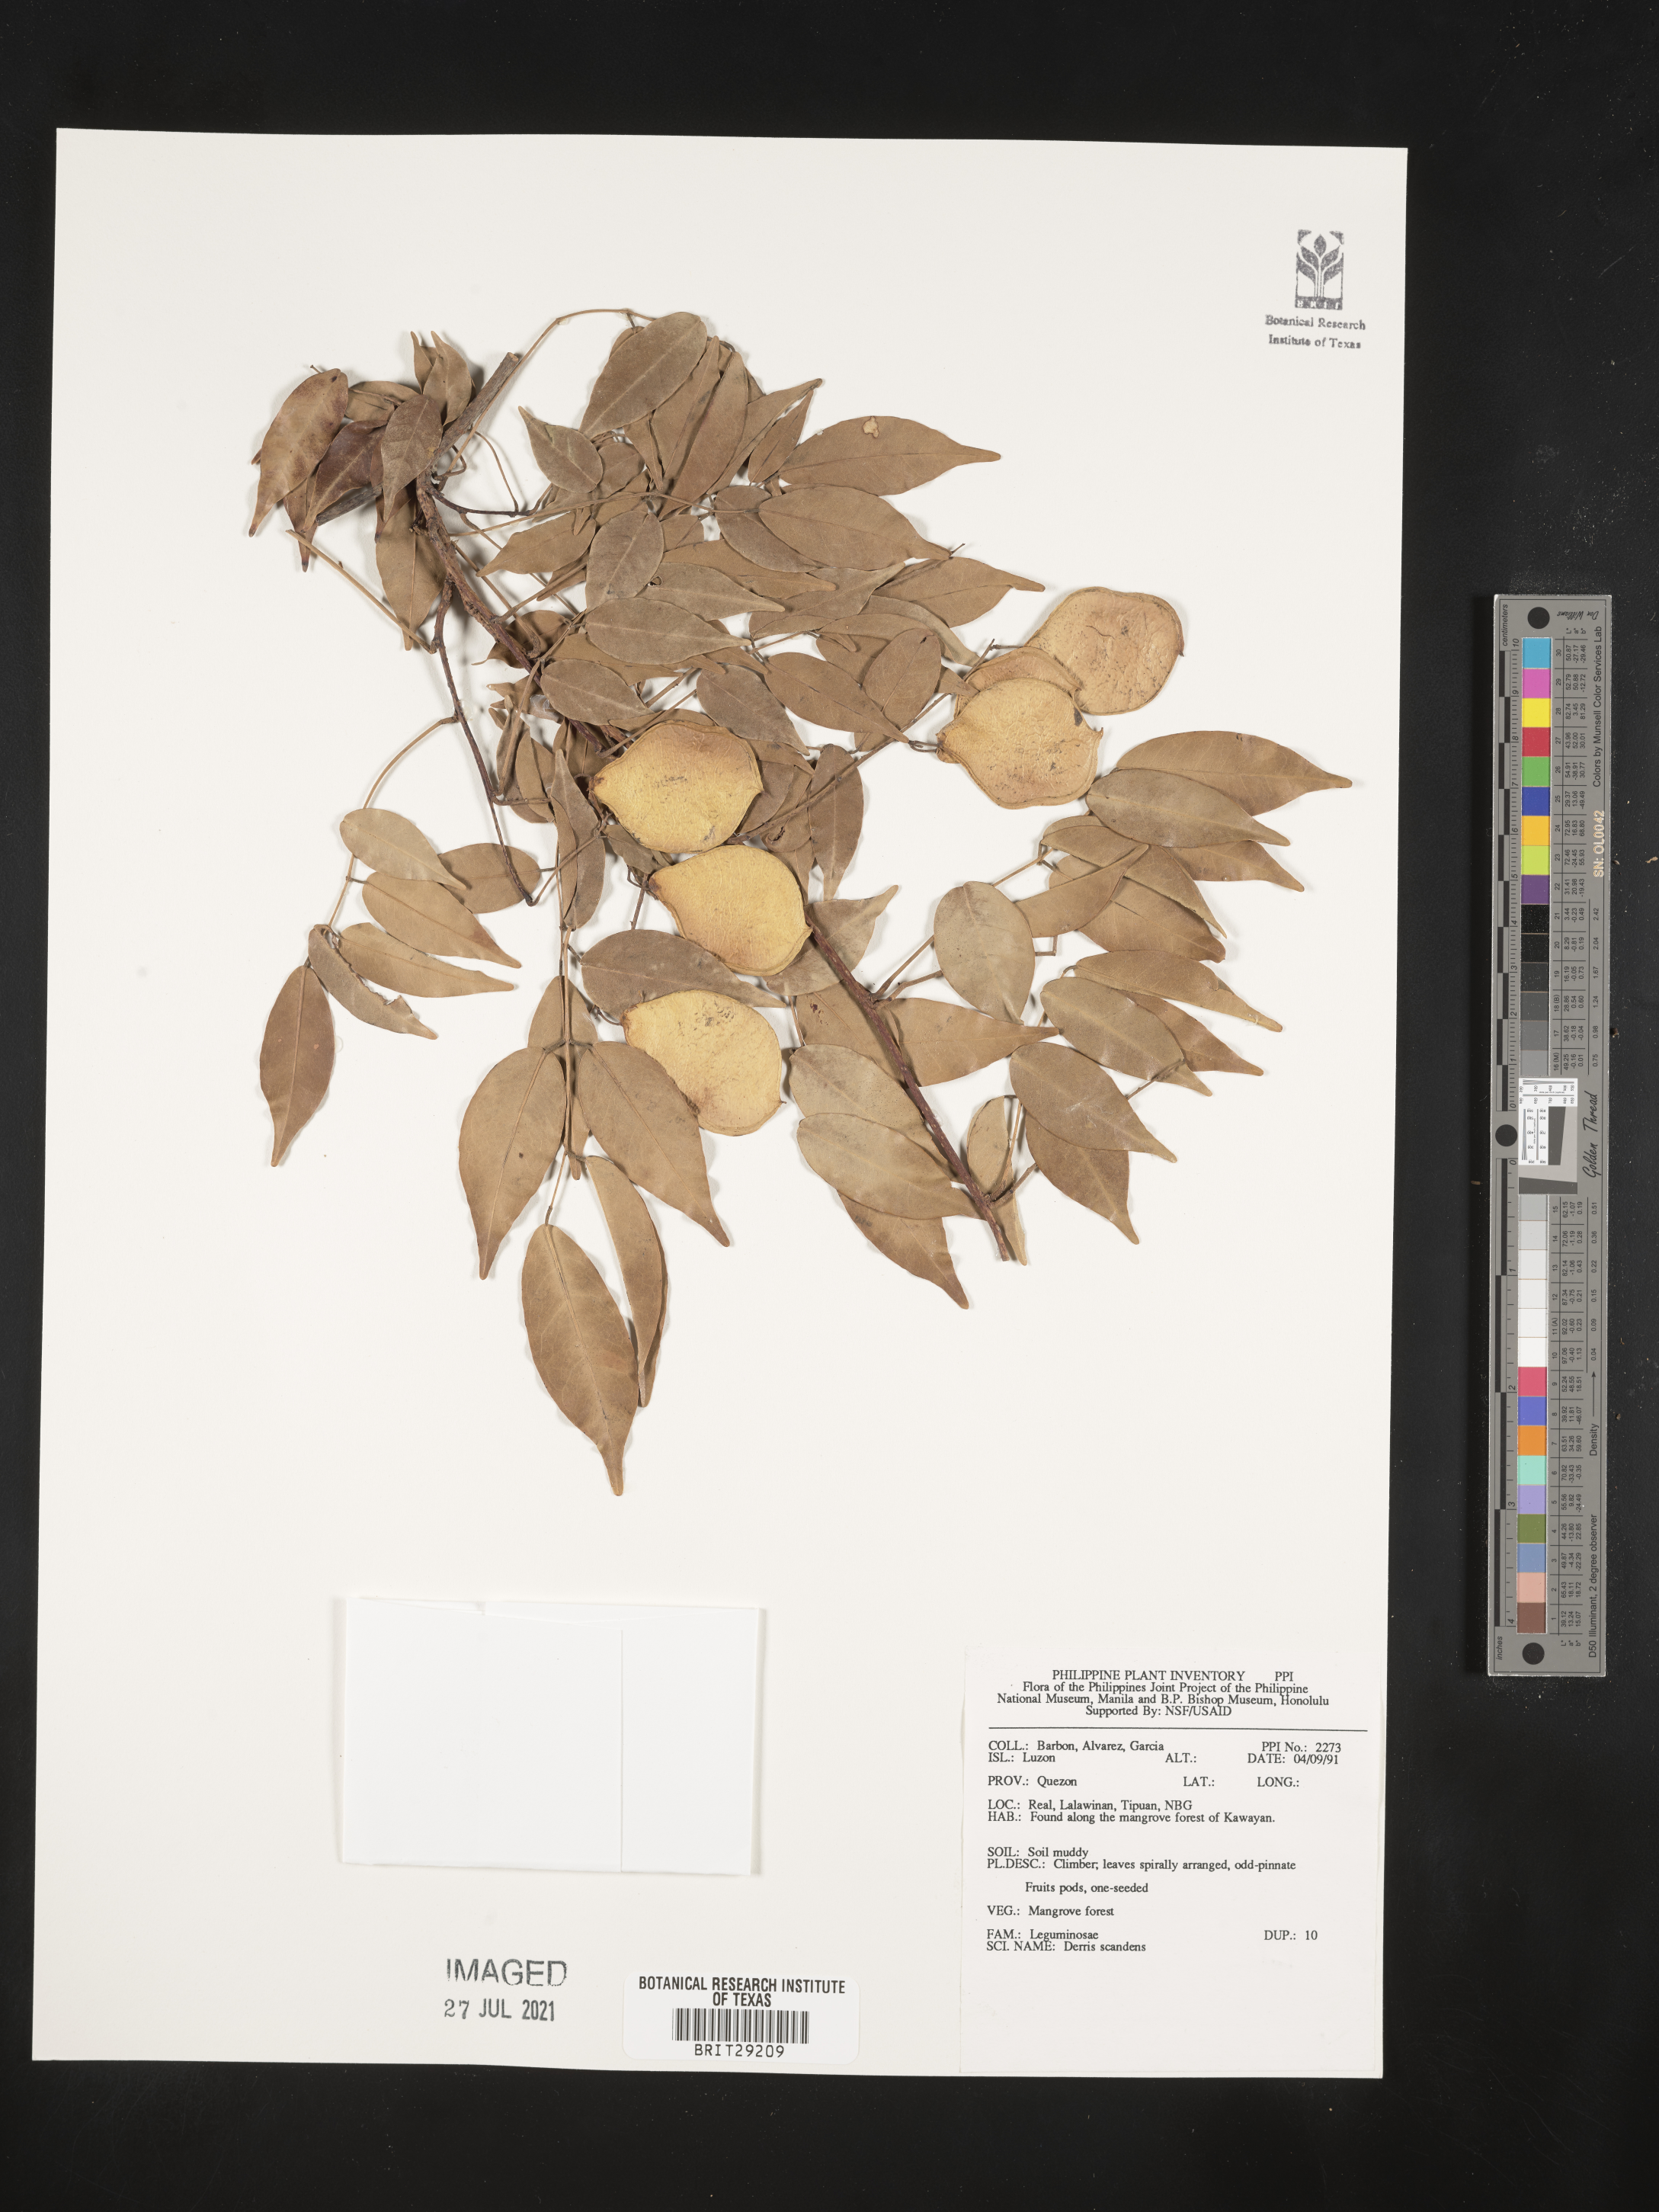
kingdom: Plantae
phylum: Tracheophyta
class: Magnoliopsida
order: Fabales
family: Fabaceae
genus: Brachypterum
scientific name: Brachypterum scandens
